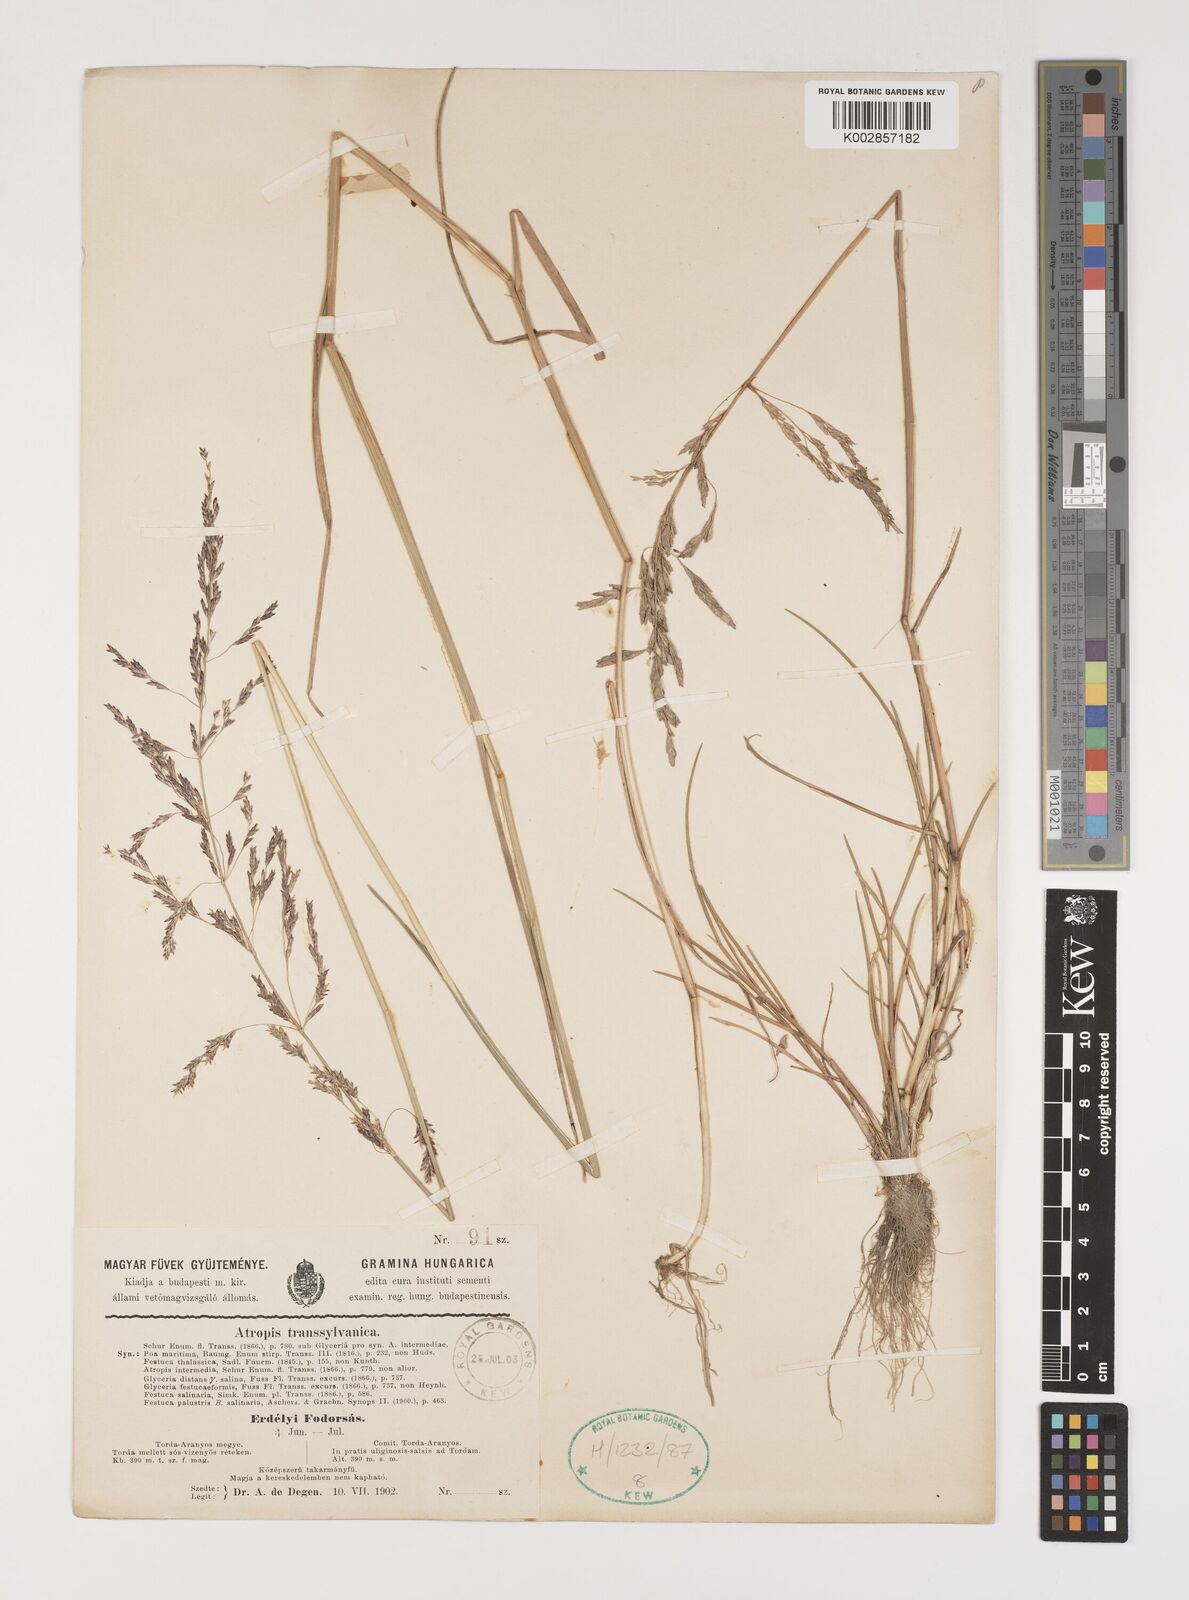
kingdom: Plantae
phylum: Tracheophyta
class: Liliopsida
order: Poales
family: Poaceae
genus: Puccinellia
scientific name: Puccinellia intermedia
